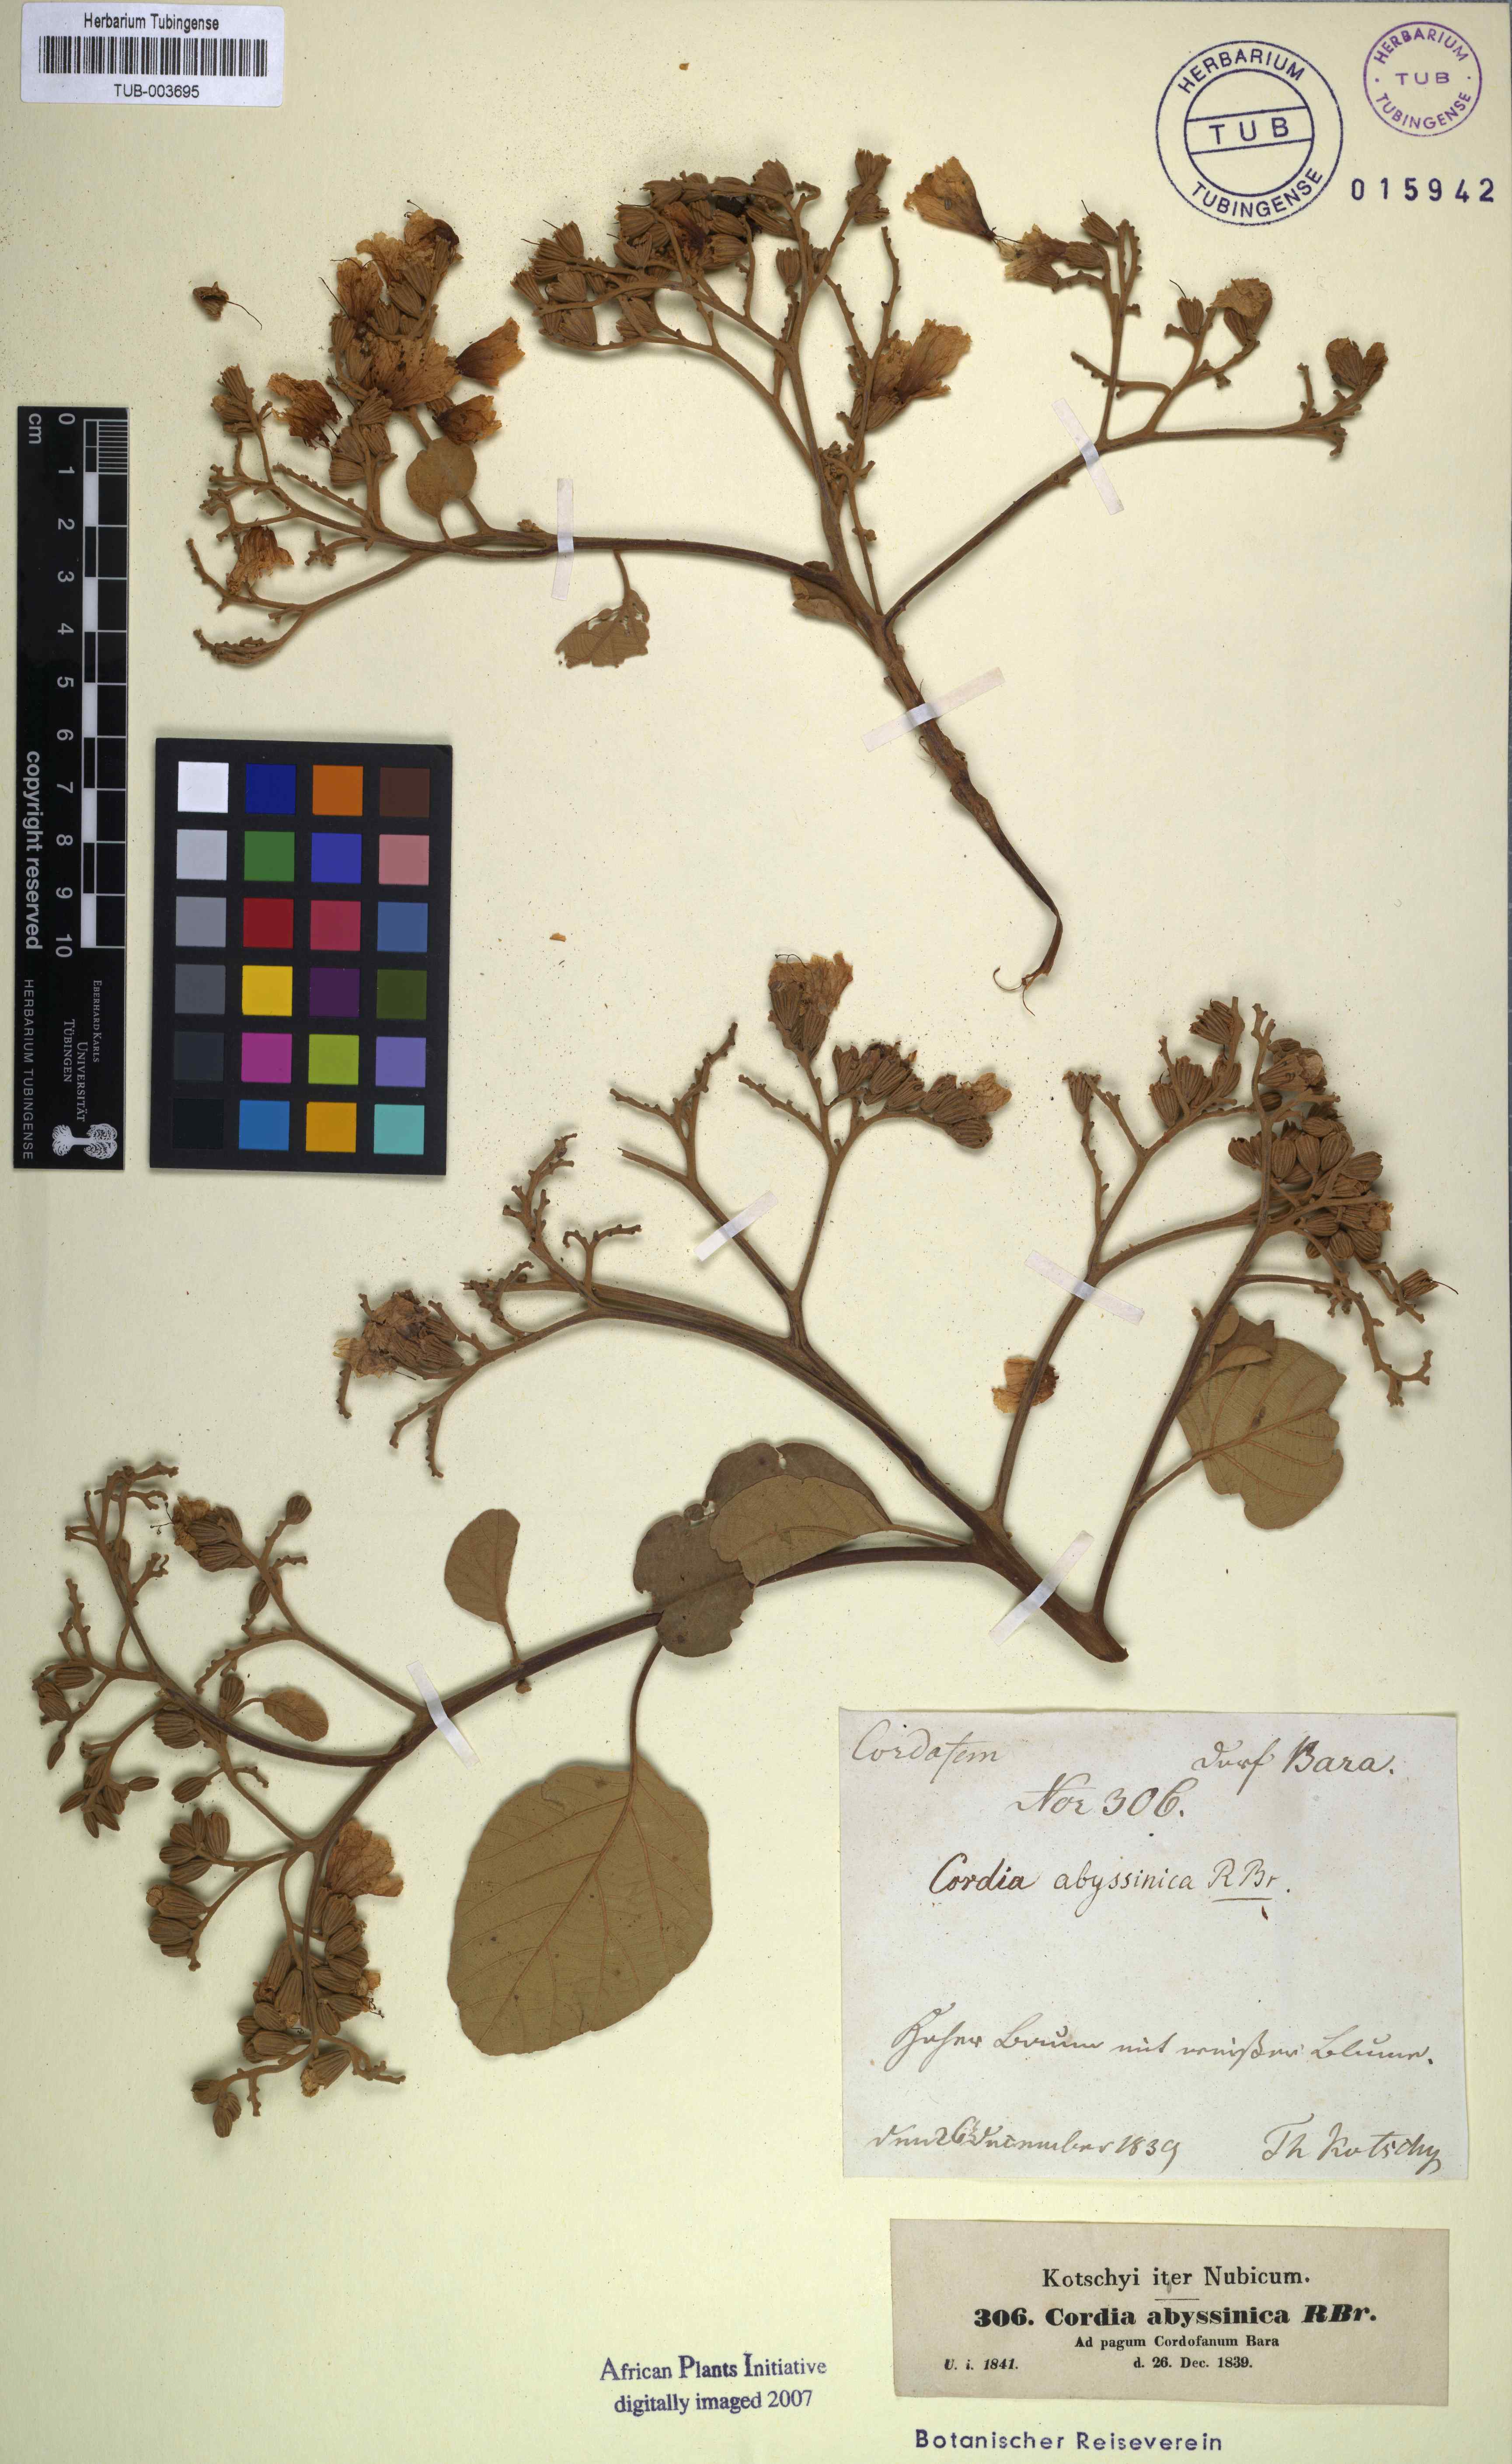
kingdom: Plantae
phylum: Tracheophyta
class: Magnoliopsida
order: Boraginales
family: Cordiaceae
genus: Cordia
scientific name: Cordia crenata
